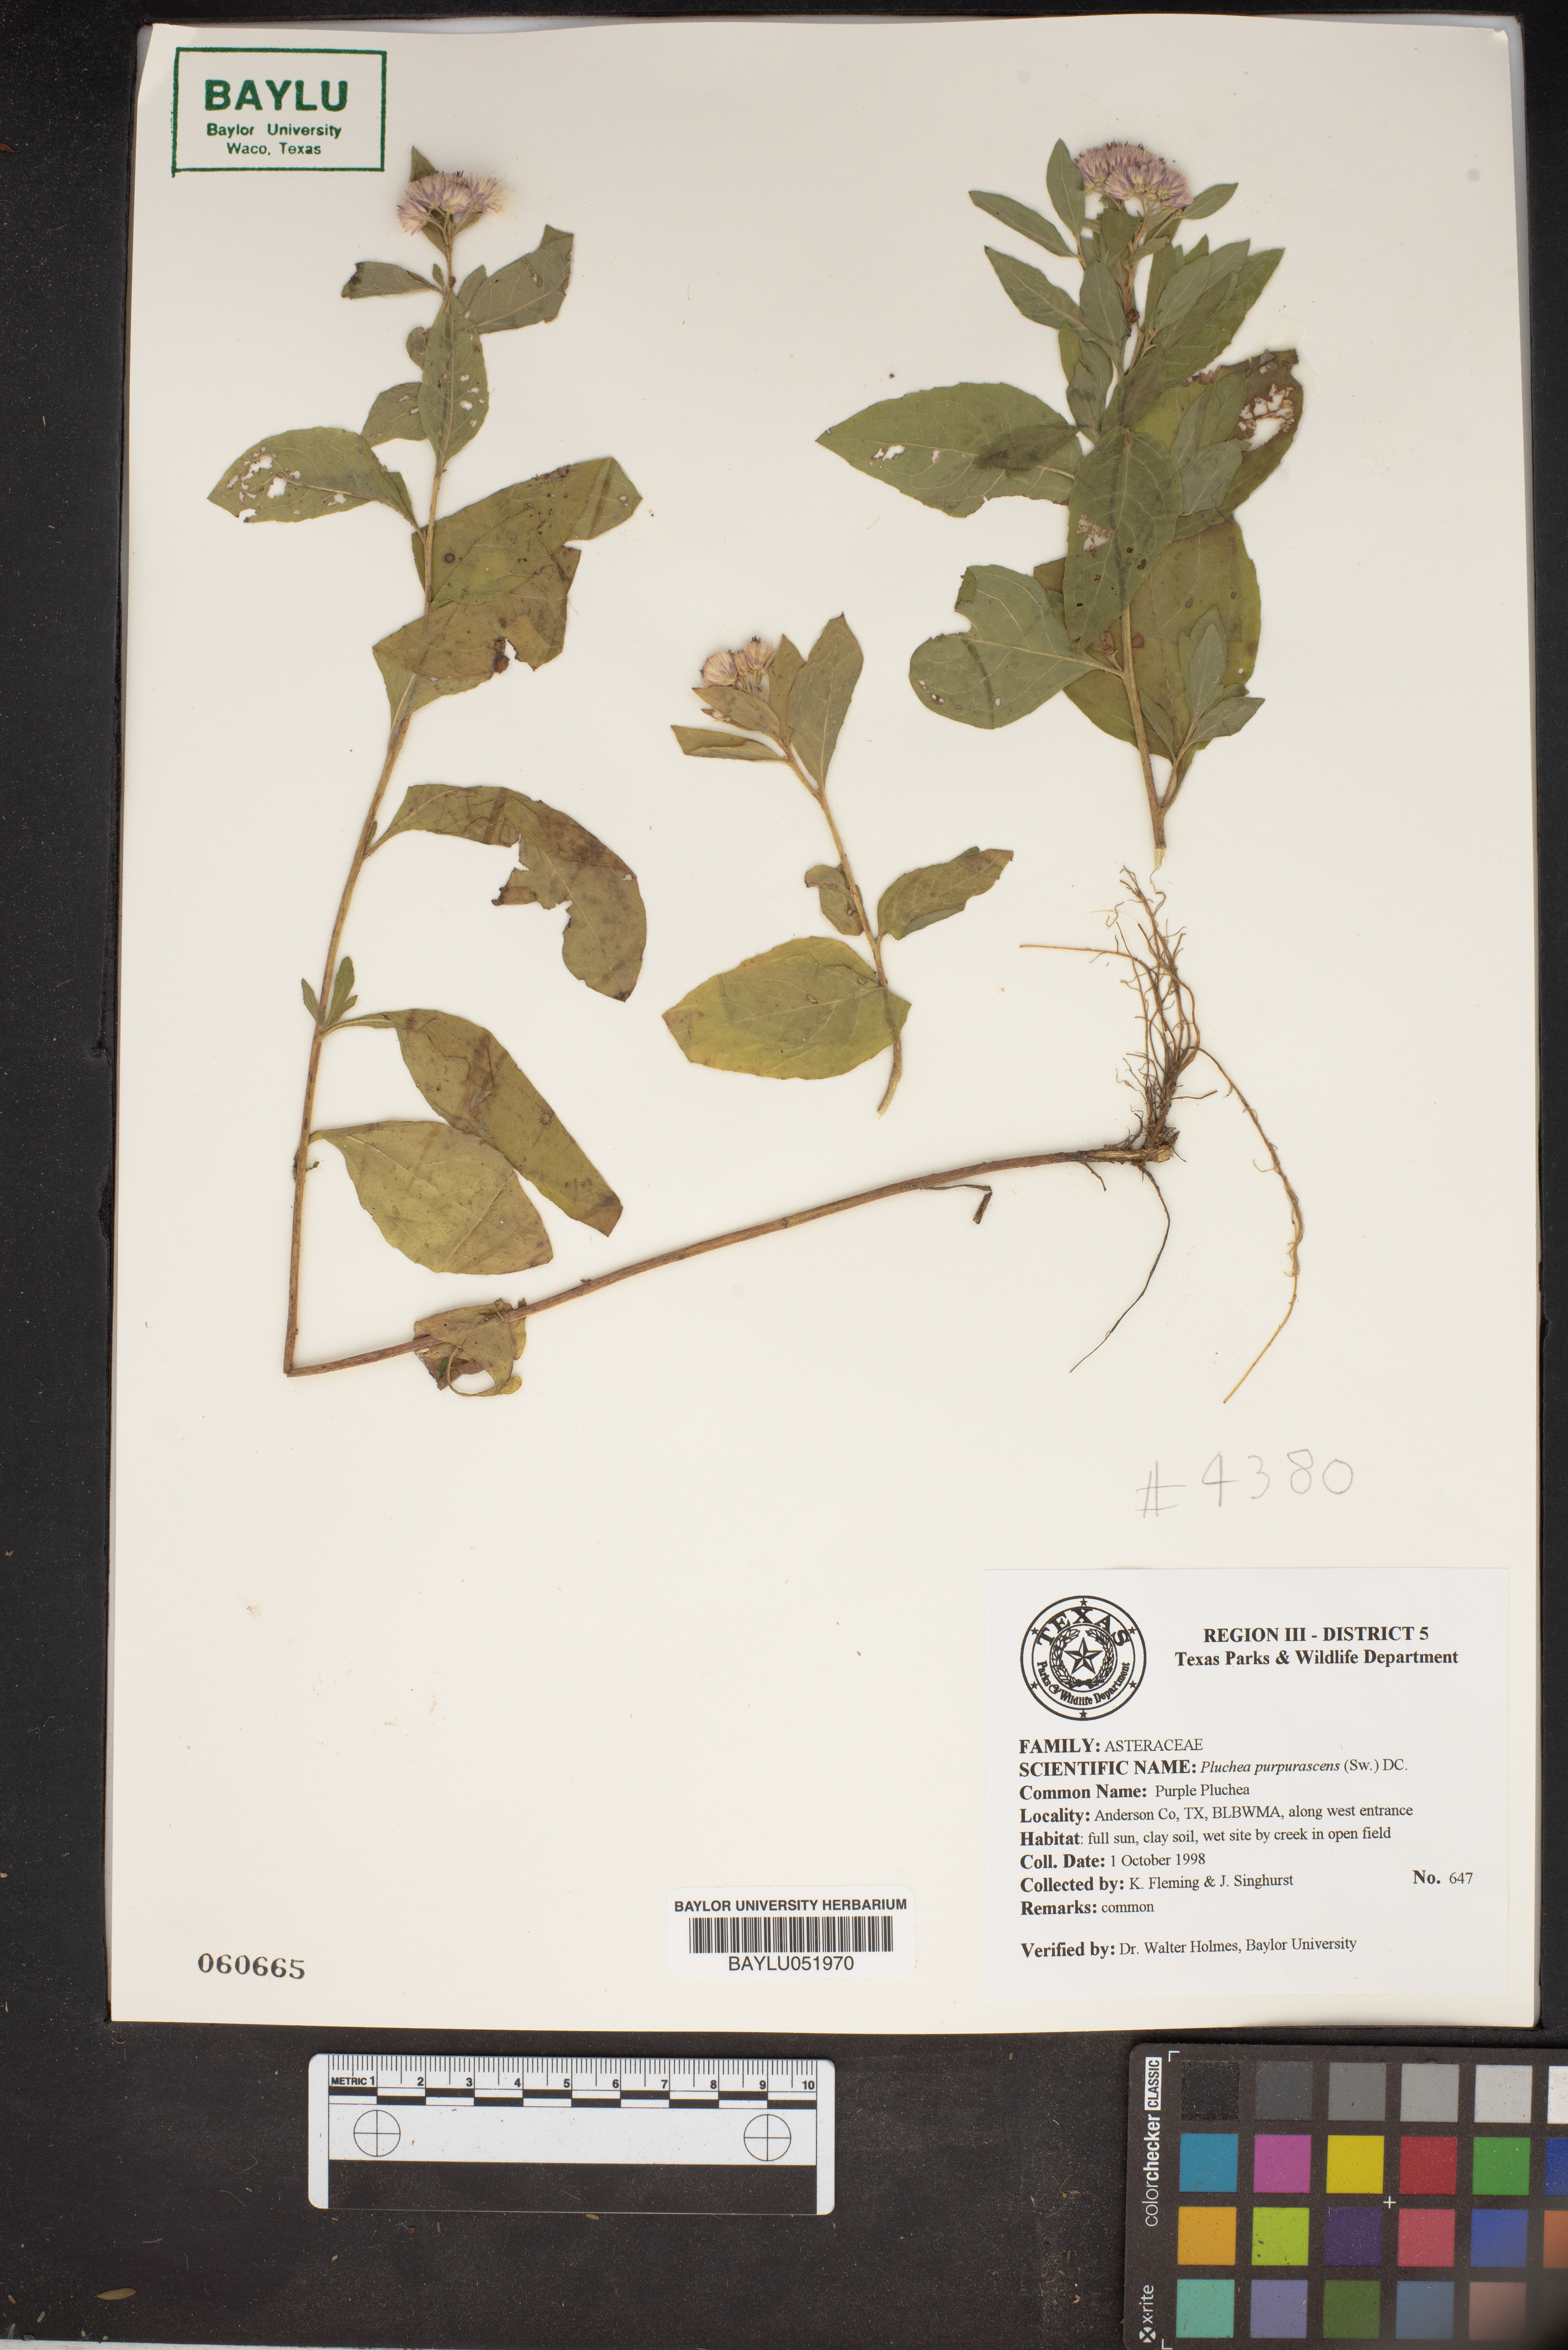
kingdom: Plantae
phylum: Tracheophyta
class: Magnoliopsida
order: Asterales
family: Asteraceae
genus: Pluchea
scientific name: Pluchea odorata
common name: Saltmarsh fleabane
